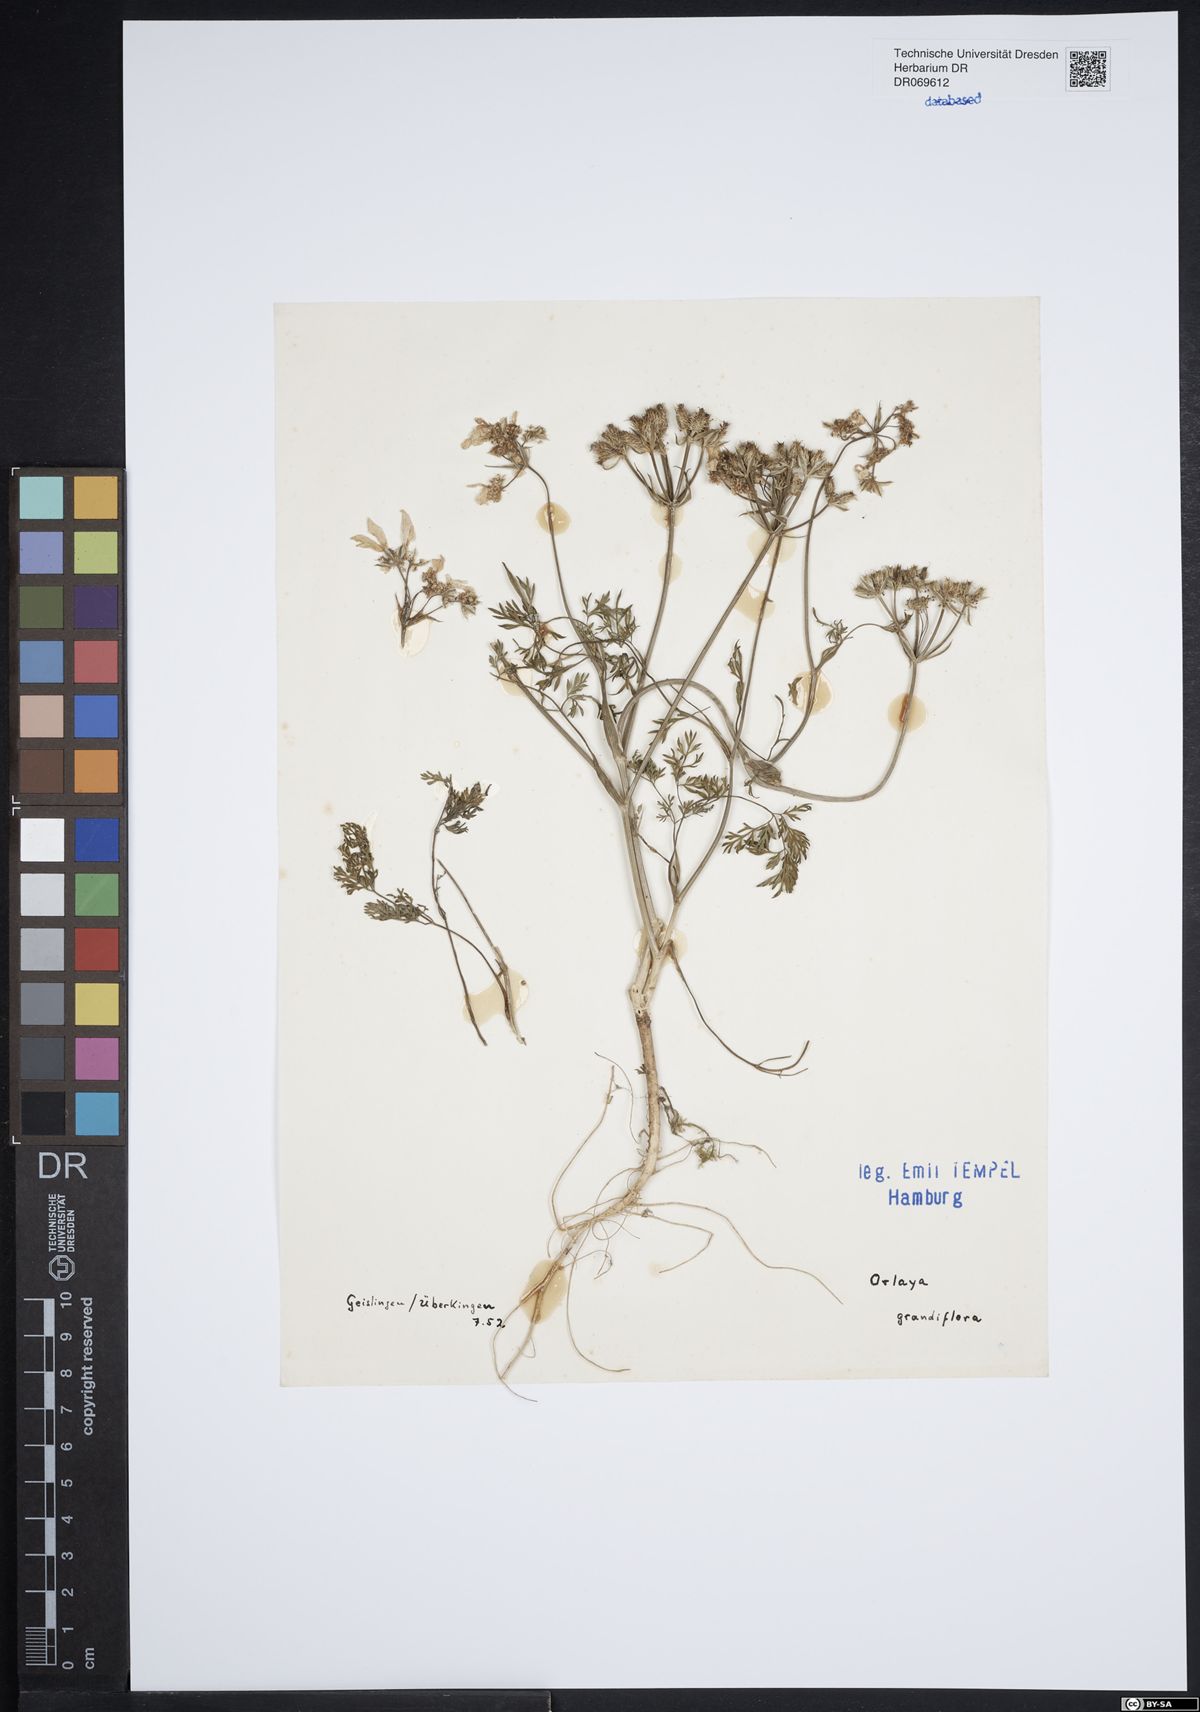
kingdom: Plantae
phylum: Tracheophyta
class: Magnoliopsida
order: Apiales
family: Apiaceae
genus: Orlaya
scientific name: Orlaya grandiflora
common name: White lace flower
